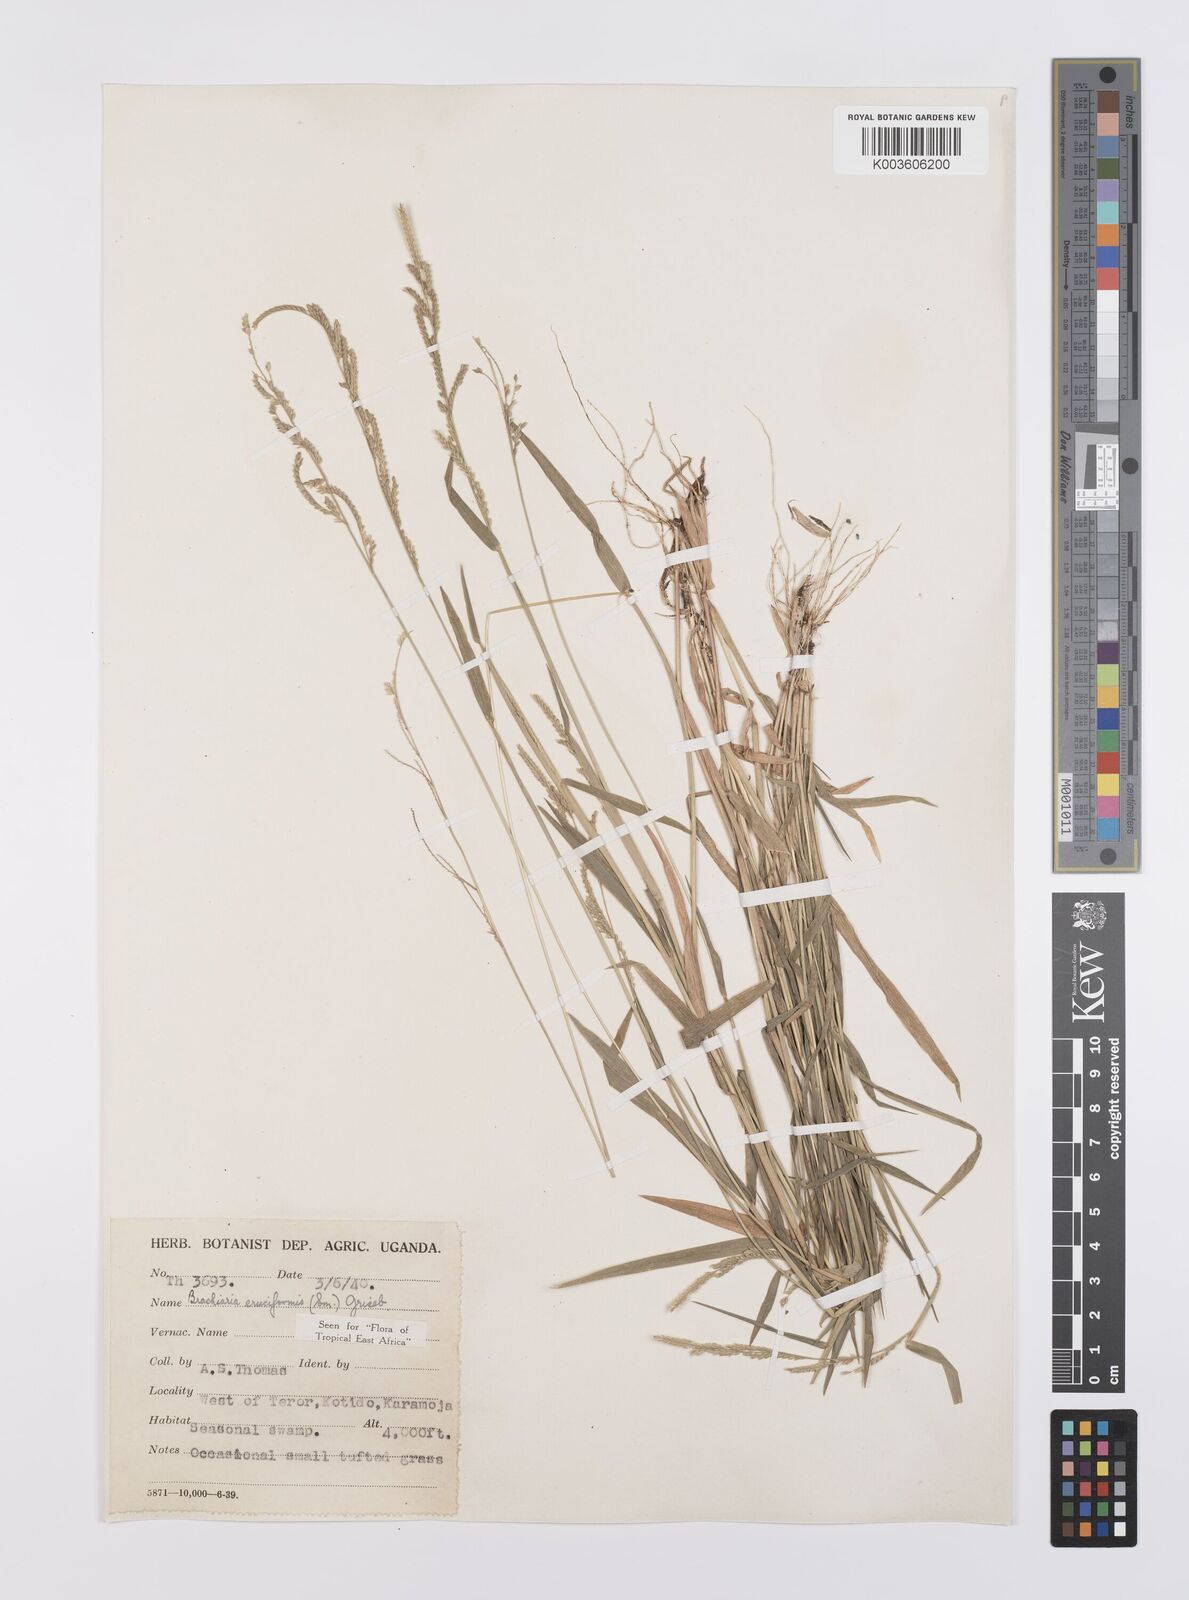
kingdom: Plantae
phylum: Tracheophyta
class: Liliopsida
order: Poales
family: Poaceae
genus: Moorochloa
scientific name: Moorochloa eruciformis
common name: Sweet signalgrass
